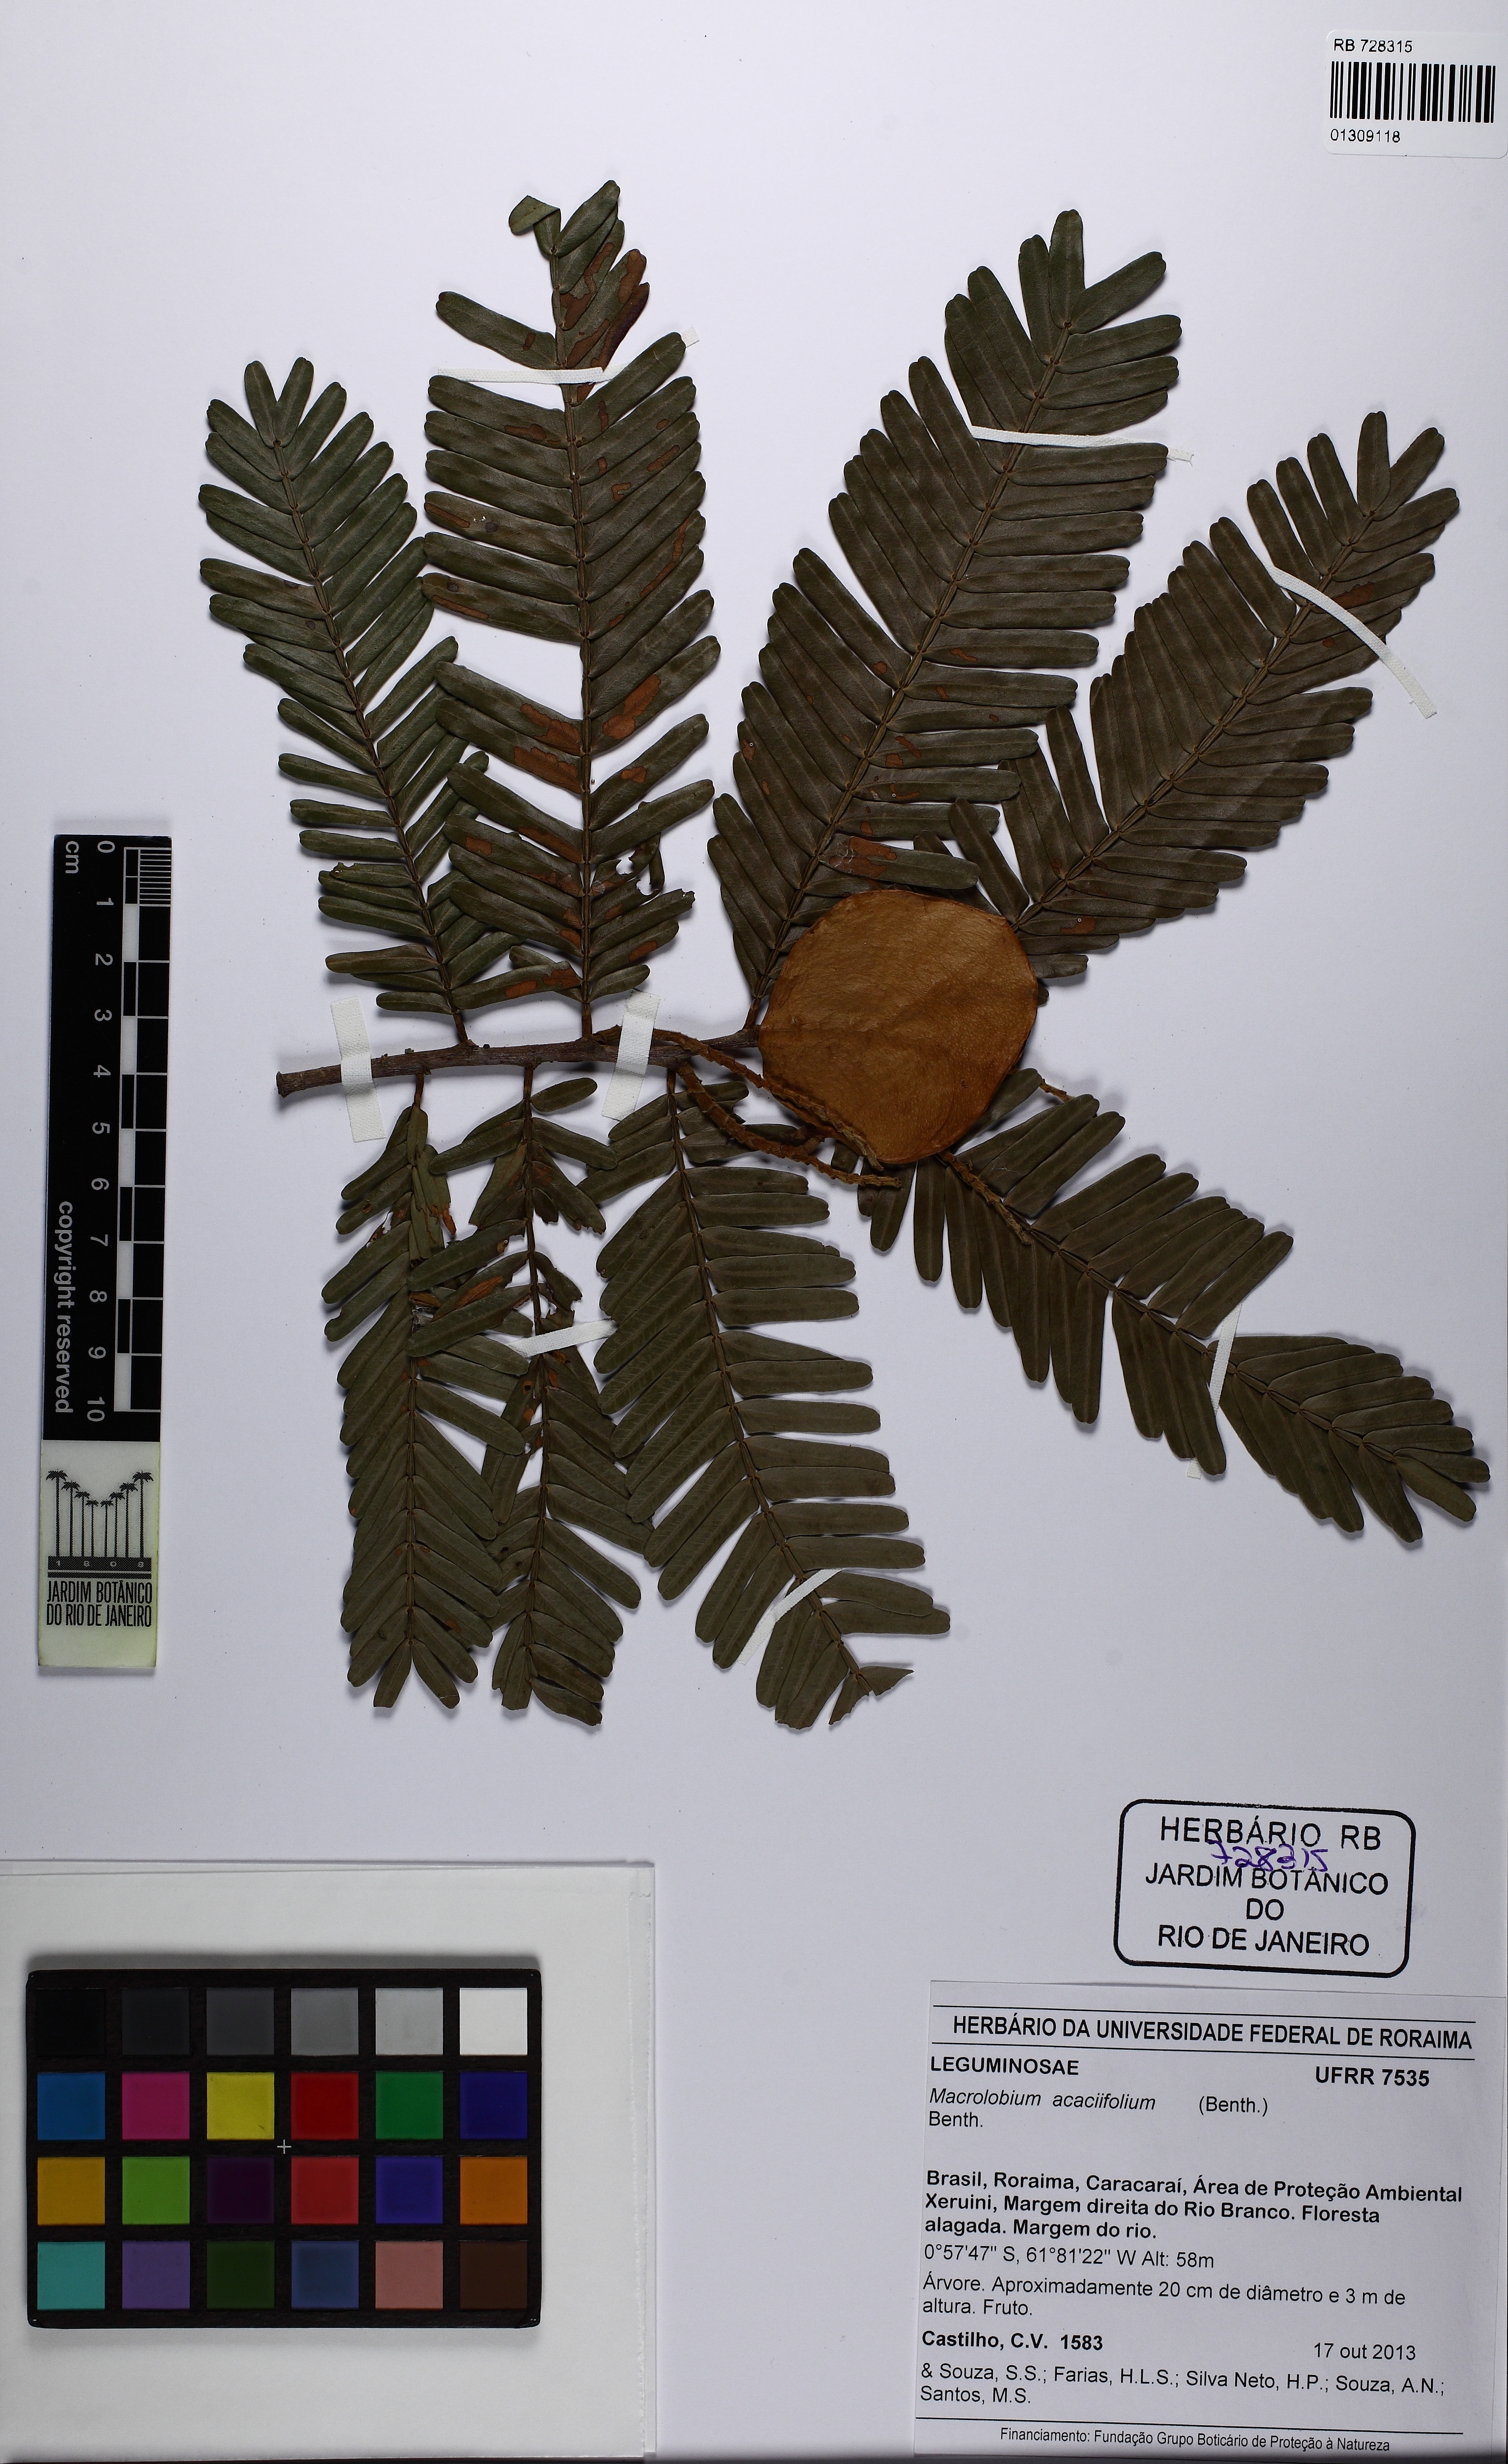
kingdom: Plantae
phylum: Tracheophyta
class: Magnoliopsida
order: Fabales
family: Fabaceae
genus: Macrolobium
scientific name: Macrolobium acaciifolium
